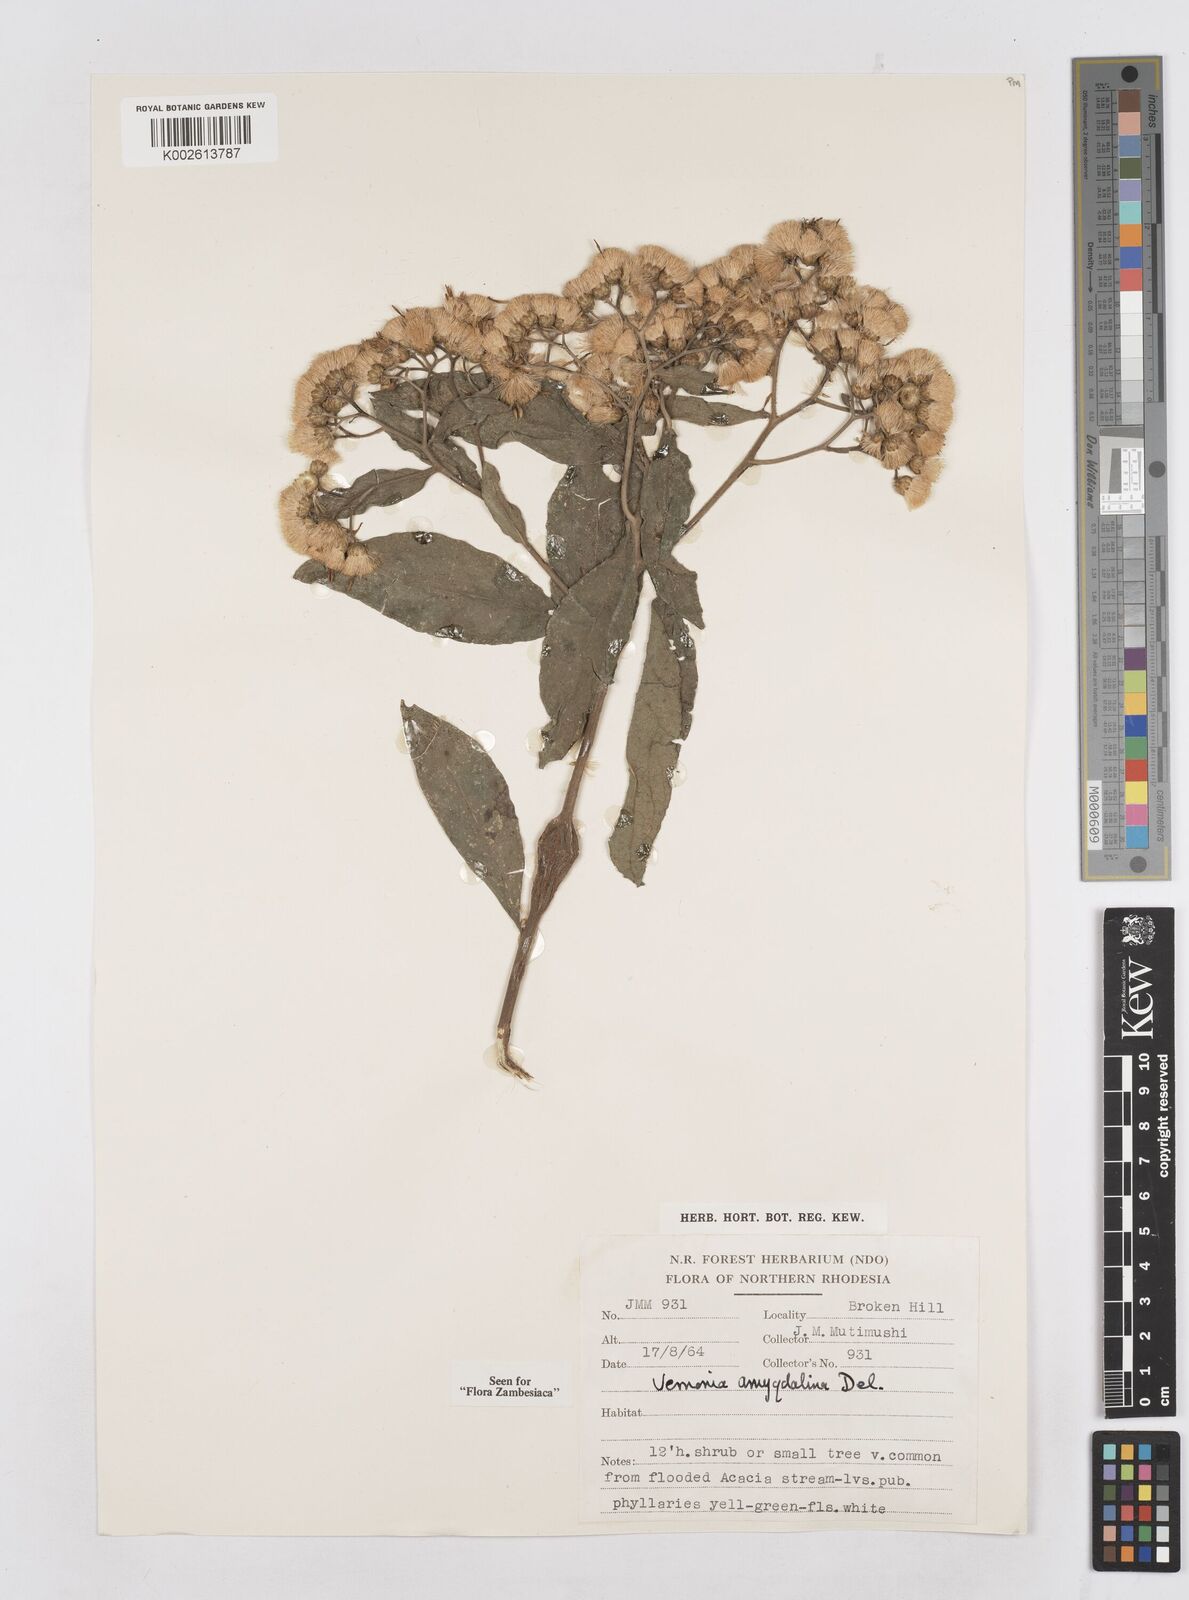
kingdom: Plantae
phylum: Tracheophyta
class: Magnoliopsida
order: Asterales
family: Asteraceae
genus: Gymnanthemum
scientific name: Gymnanthemum amygdalinum
